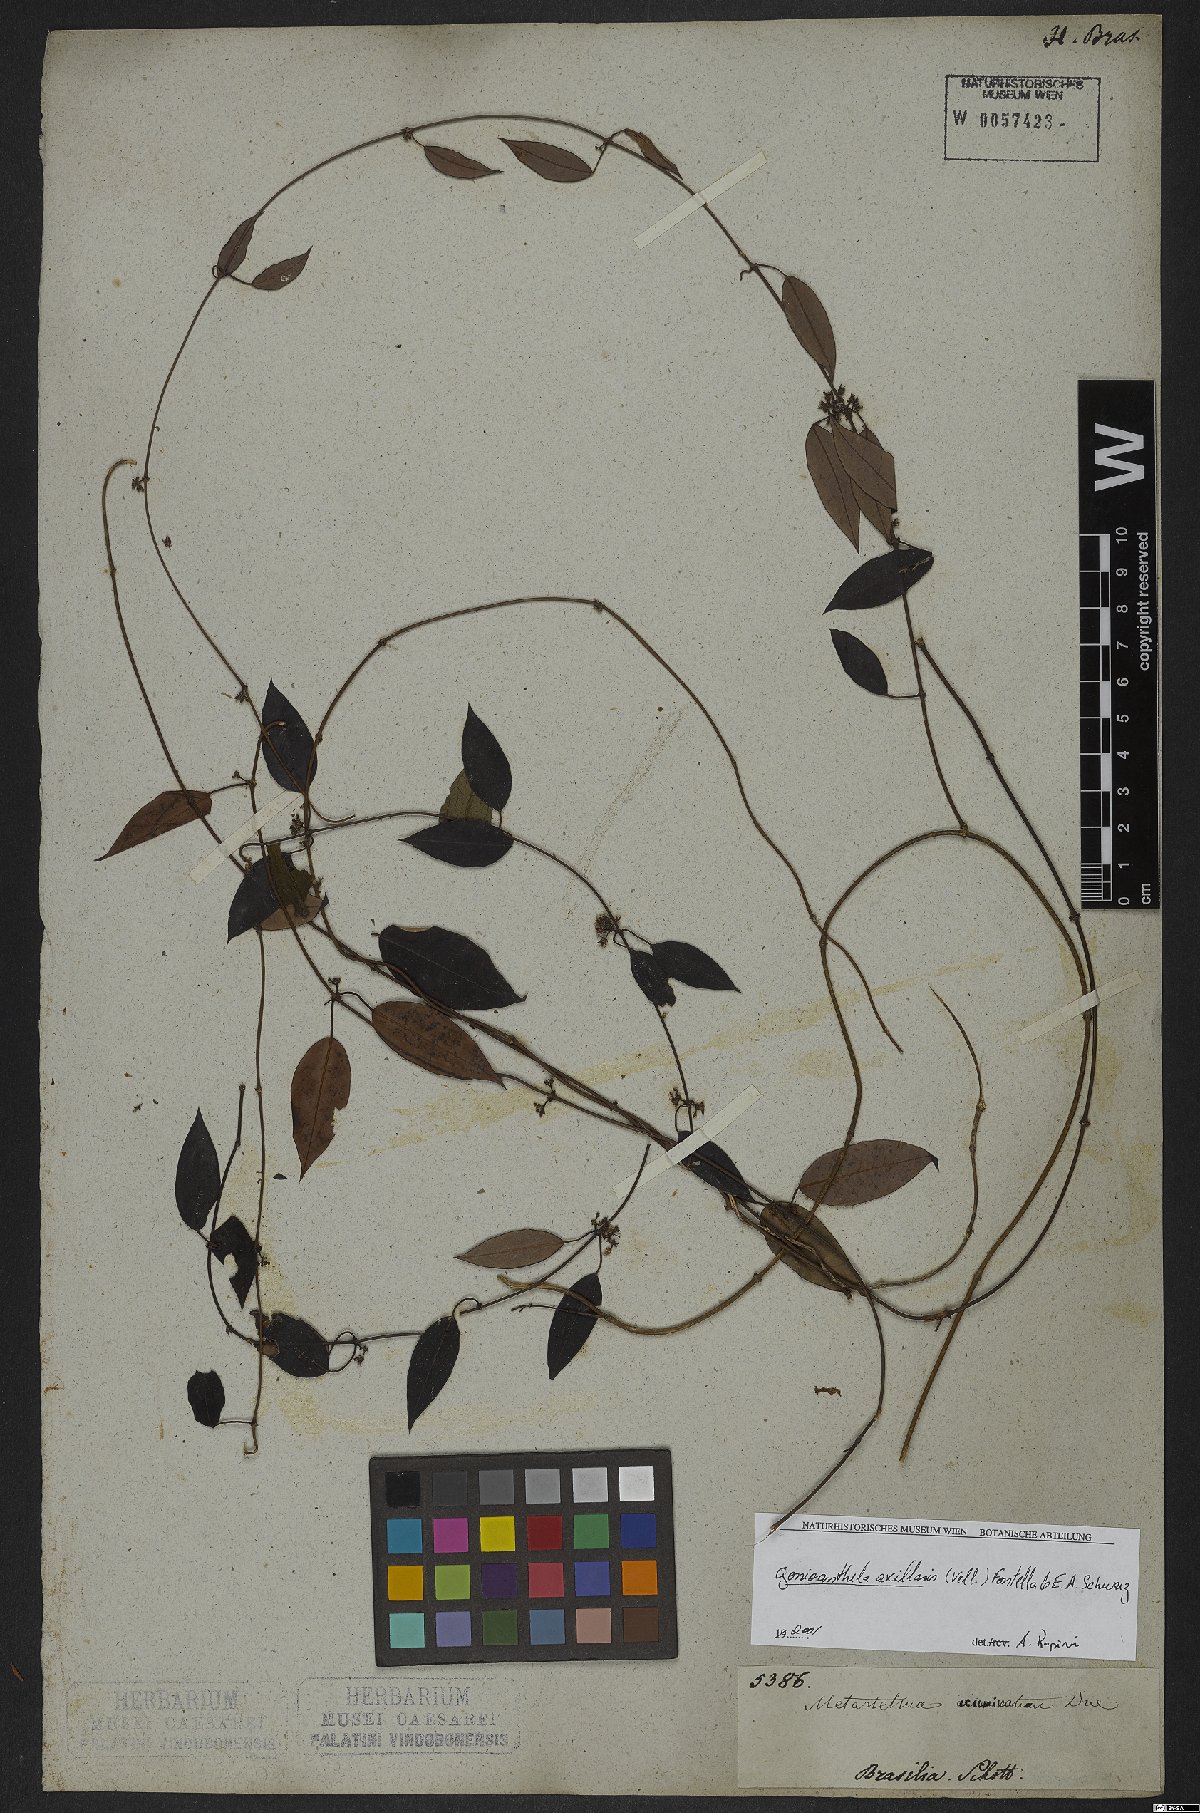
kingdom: Plantae
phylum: Tracheophyta
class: Magnoliopsida
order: Gentianales
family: Apocynaceae
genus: Peplonia
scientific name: Peplonia axillaris
